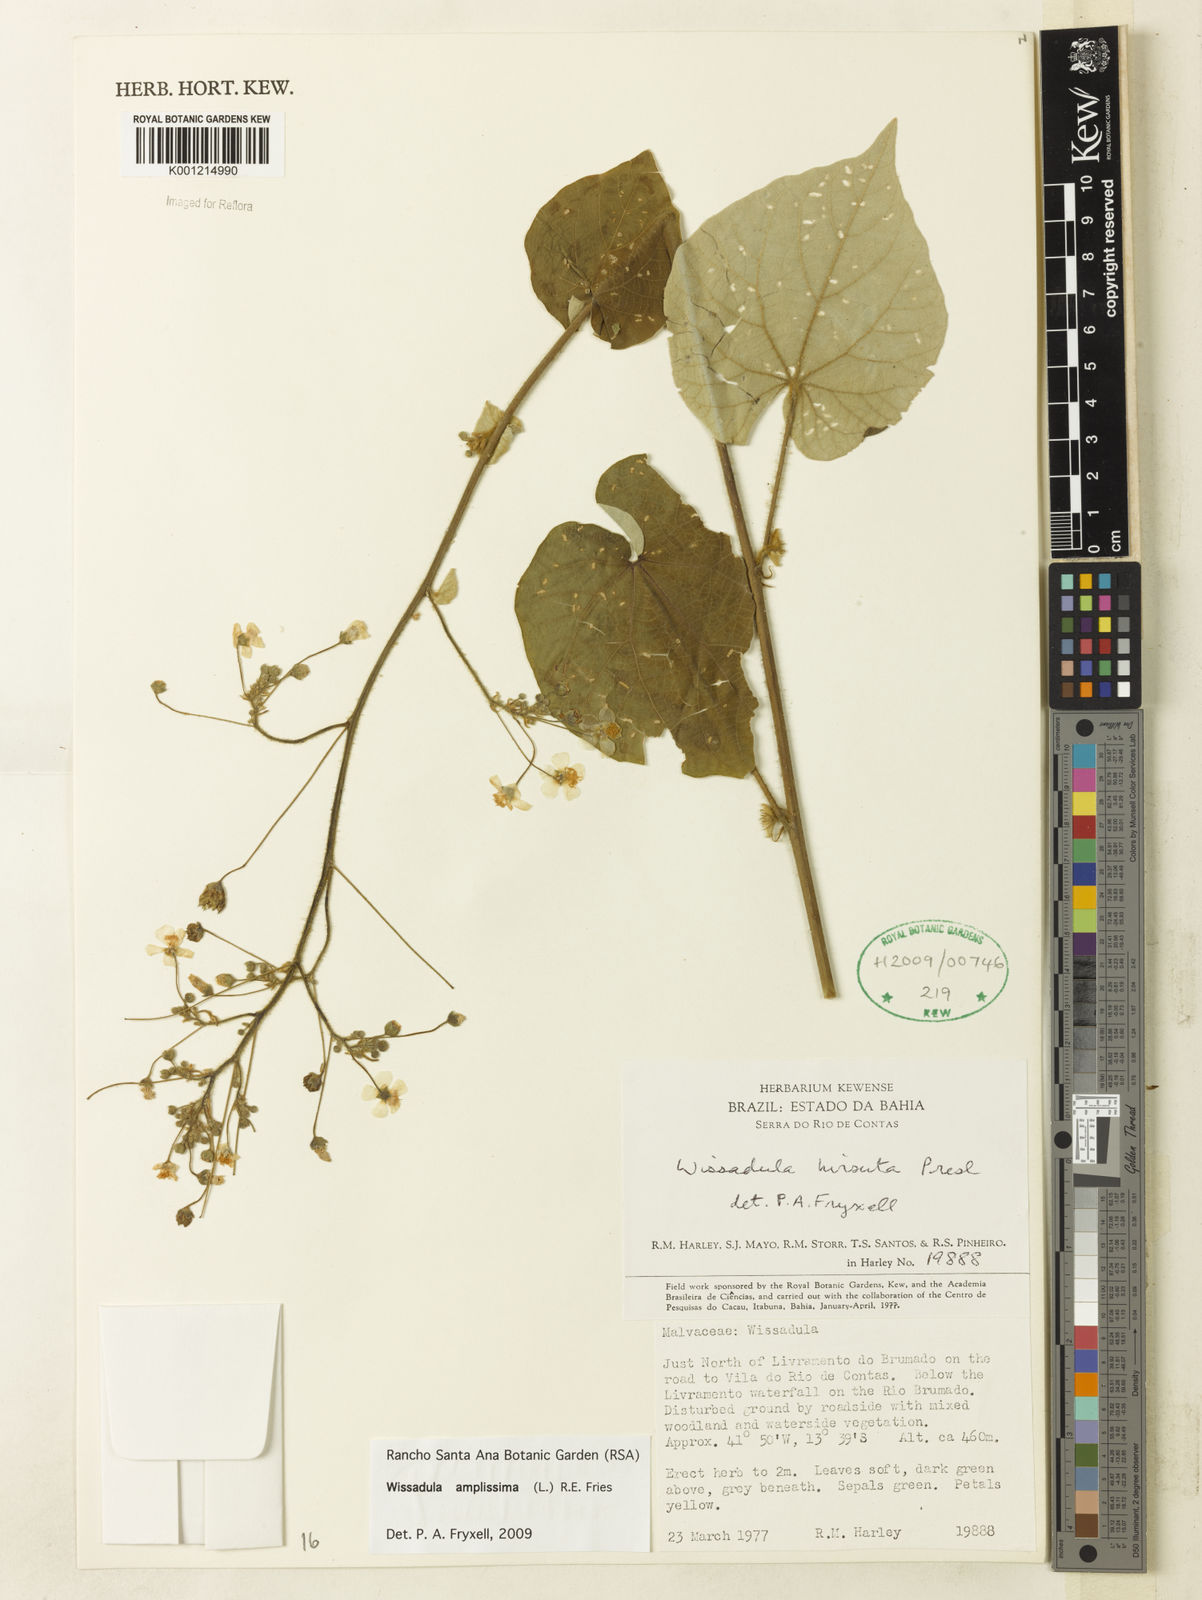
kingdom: Plantae
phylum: Tracheophyta
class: Magnoliopsida
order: Malvales
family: Malvaceae
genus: Wissadula
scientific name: Wissadula amplissima
